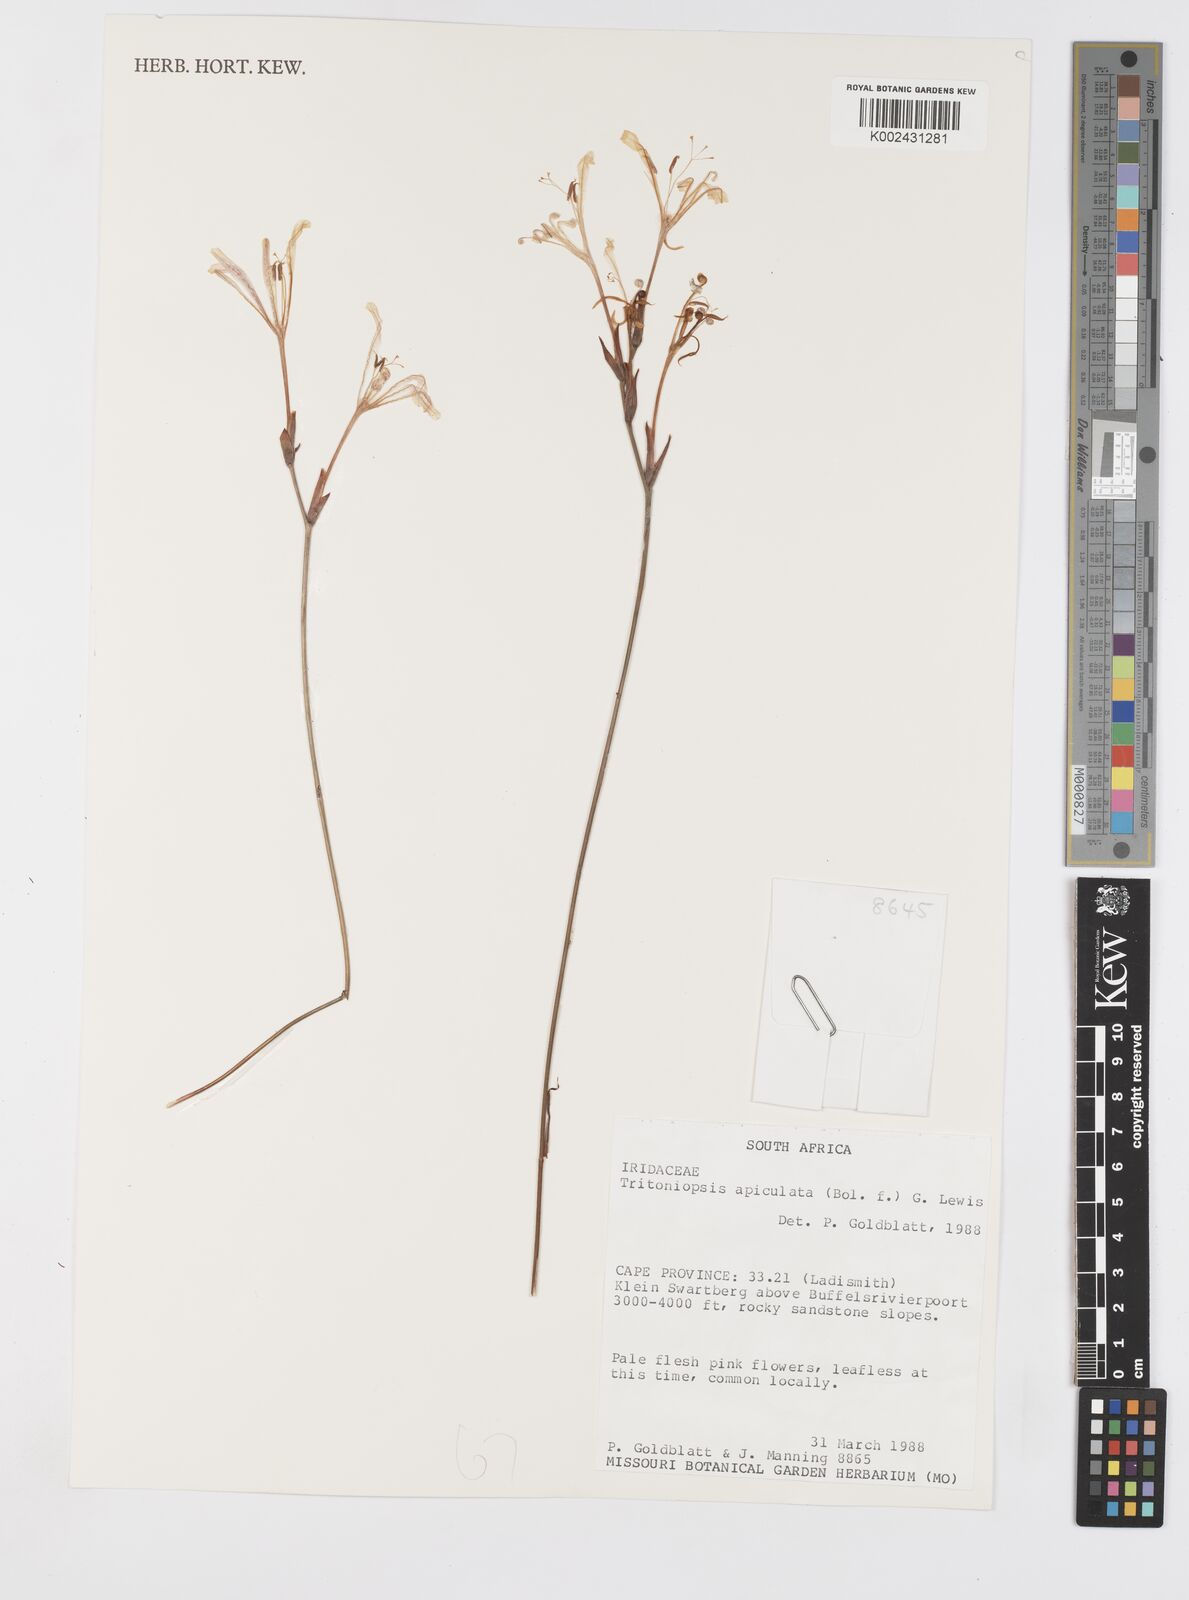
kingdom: Plantae
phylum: Tracheophyta
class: Liliopsida
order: Asparagales
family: Iridaceae
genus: Tritoniopsis
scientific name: Tritoniopsis revoluta
